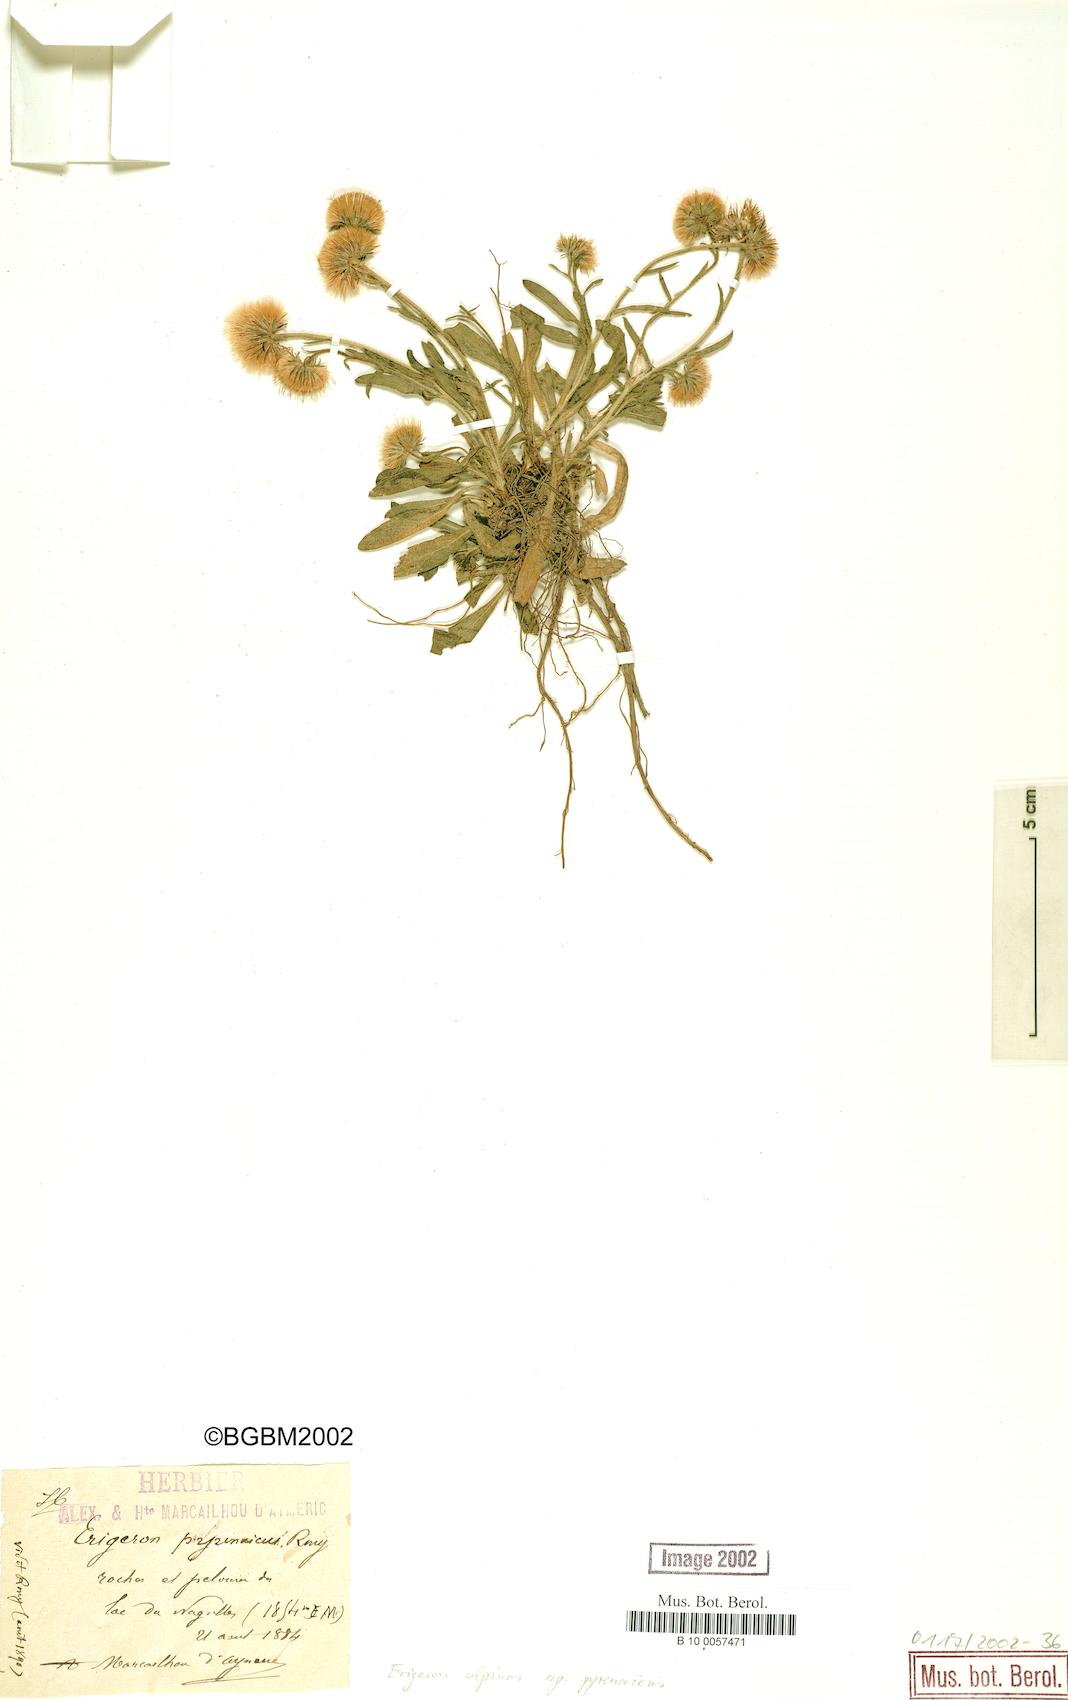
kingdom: Plantae
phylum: Tracheophyta
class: Magnoliopsida
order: Asterales
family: Asteraceae
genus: Erigeron
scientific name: Erigeron uniflorus
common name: Northern daisy
